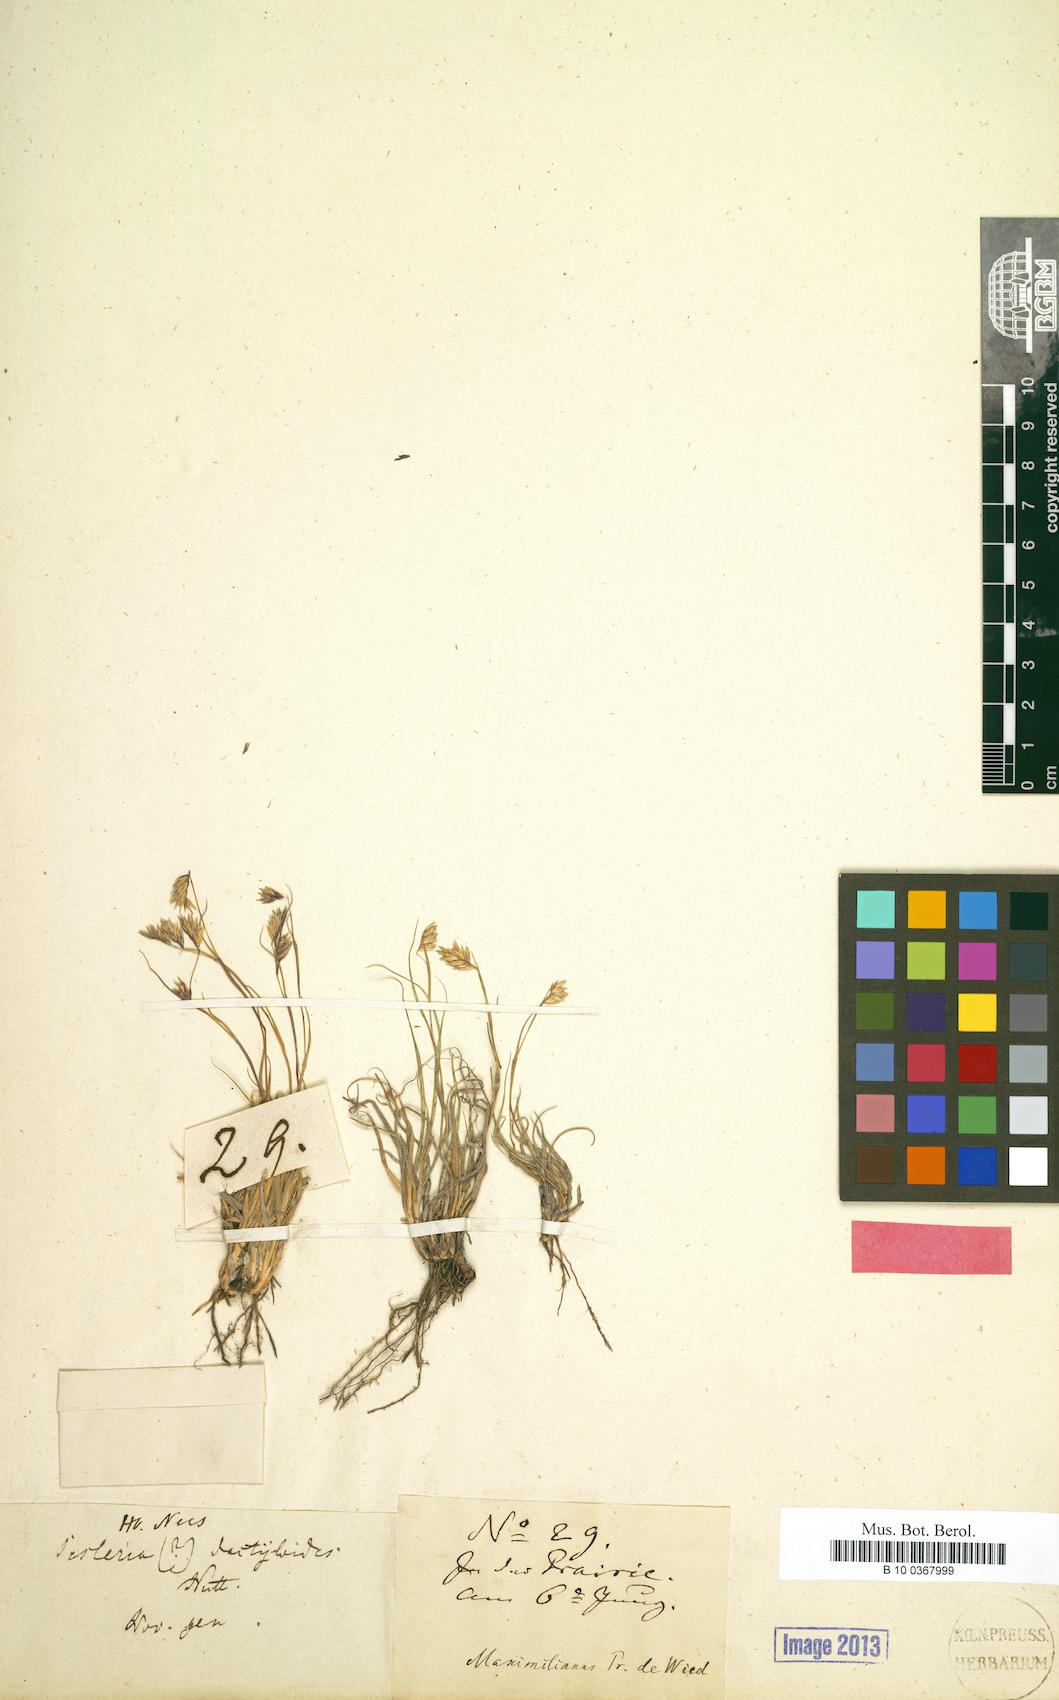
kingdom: Plantae
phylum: Tracheophyta
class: Liliopsida
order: Poales
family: Poaceae
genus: Bouteloua
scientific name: Bouteloua dactyloides
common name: Buffalo grass
